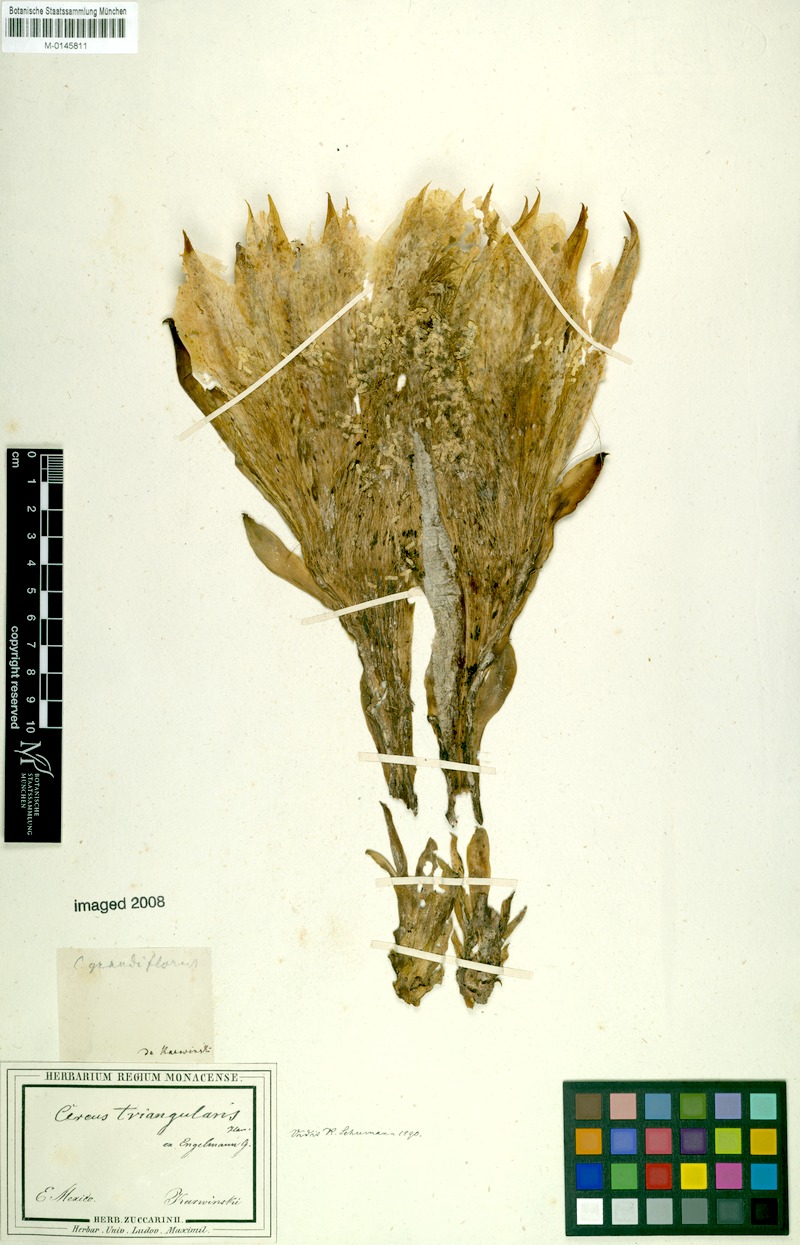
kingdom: Plantae
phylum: Tracheophyta
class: Magnoliopsida
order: Caryophyllales
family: Cactaceae
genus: Selenicereus
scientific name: Selenicereus triangularis
